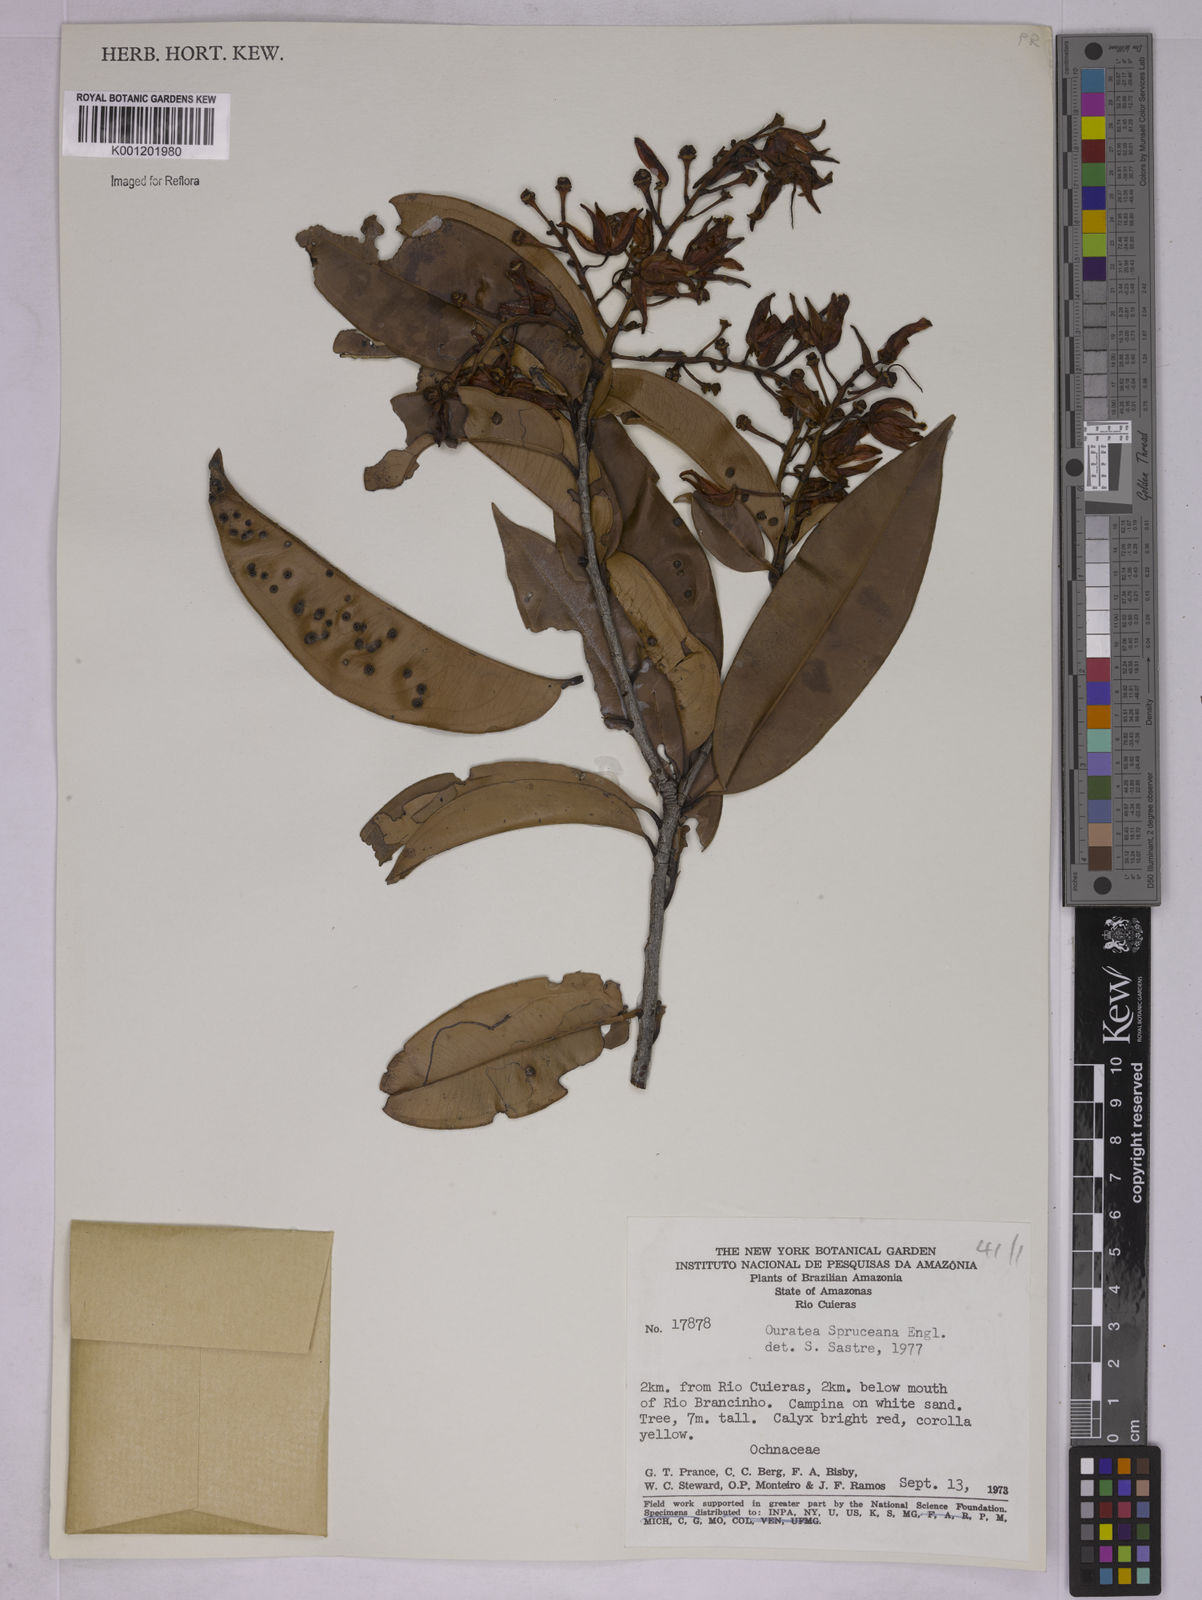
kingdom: Plantae
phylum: Tracheophyta
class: Magnoliopsida
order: Malpighiales
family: Ochnaceae
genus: Ouratea
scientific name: Ouratea spruceana
